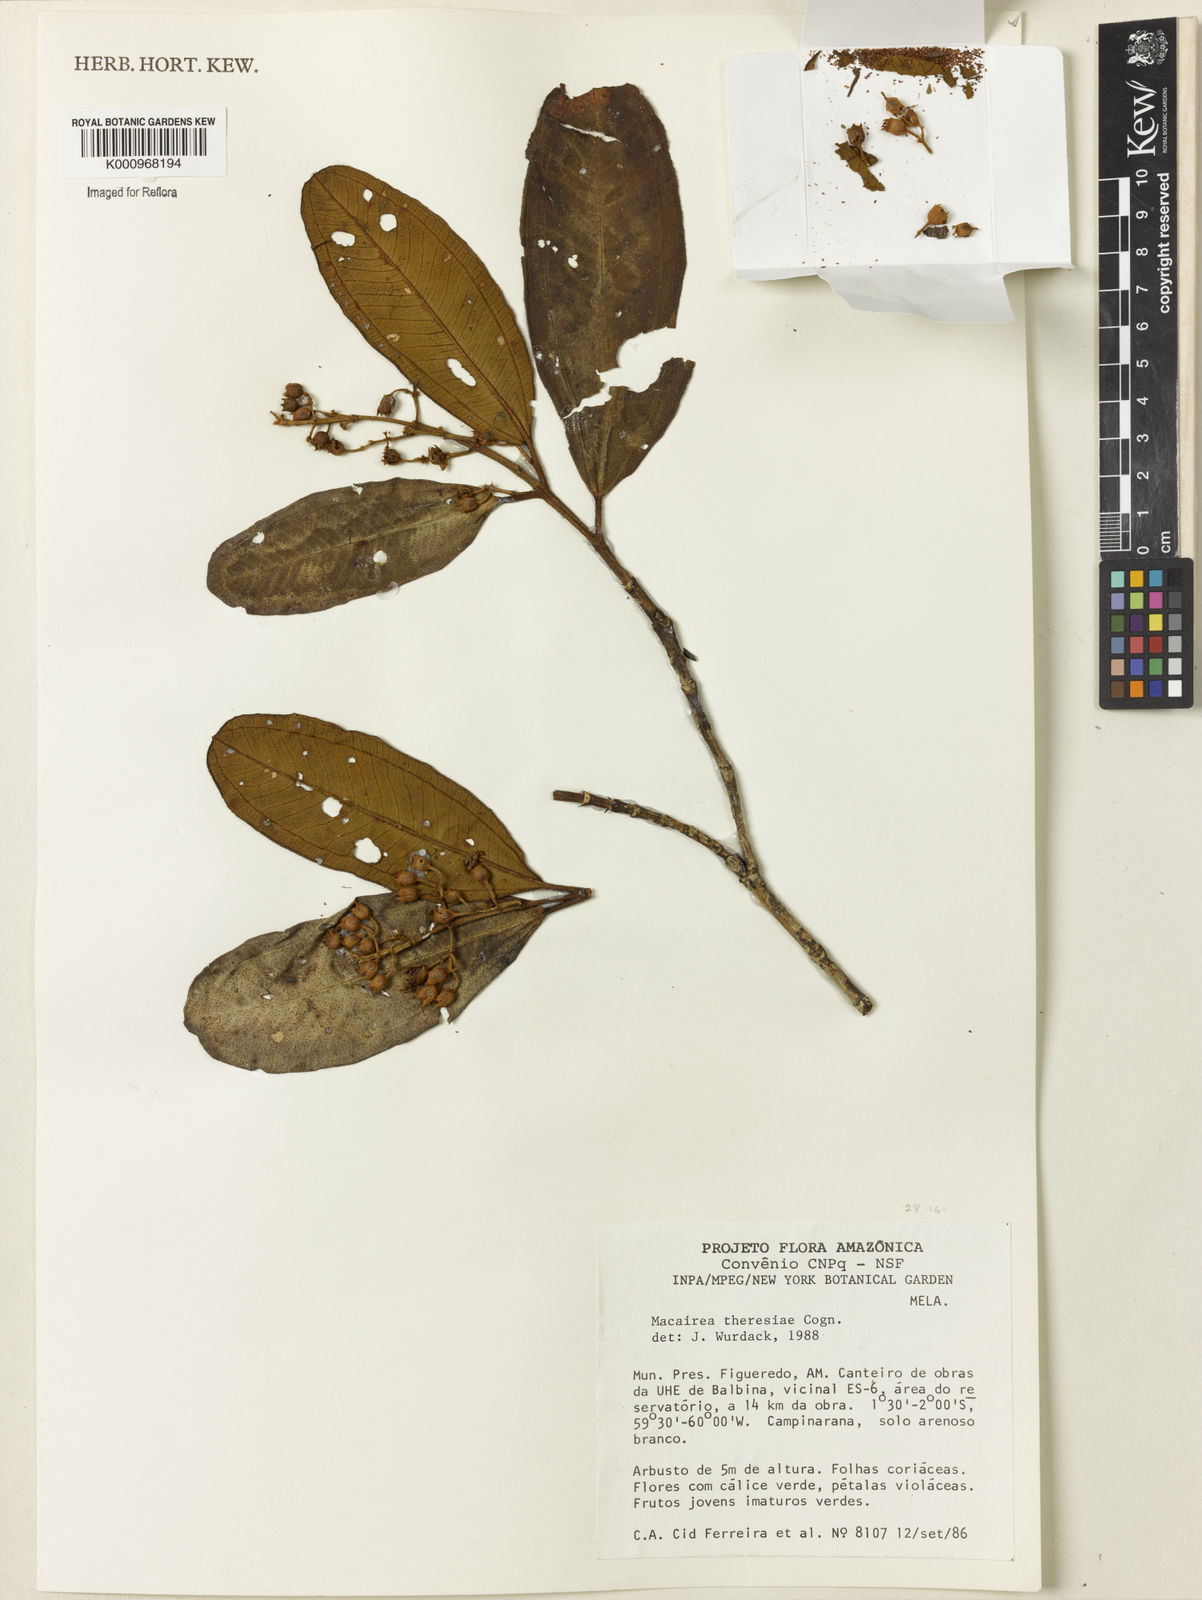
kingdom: Plantae
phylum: Tracheophyta
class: Magnoliopsida
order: Myrtales
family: Melastomataceae
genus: Macairea
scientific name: Macairea theresiae
